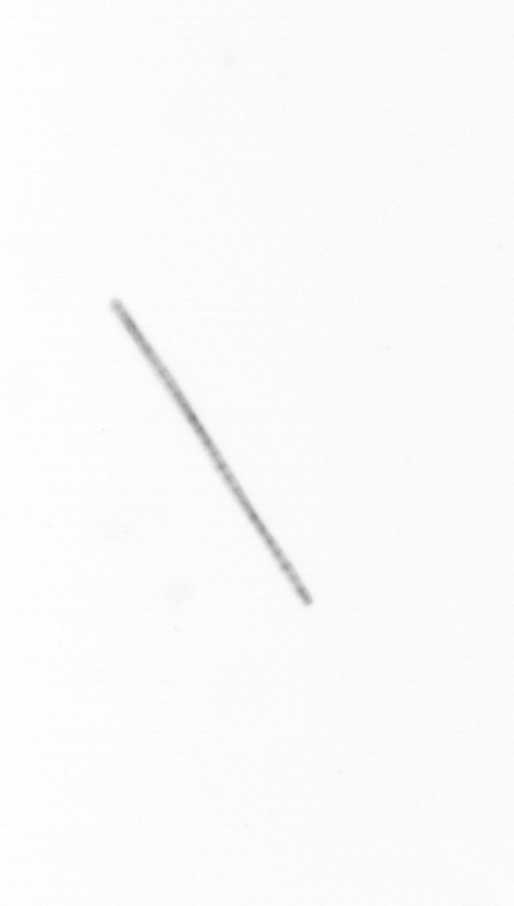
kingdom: Chromista
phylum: Ochrophyta
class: Bacillariophyceae
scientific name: Bacillariophyceae
